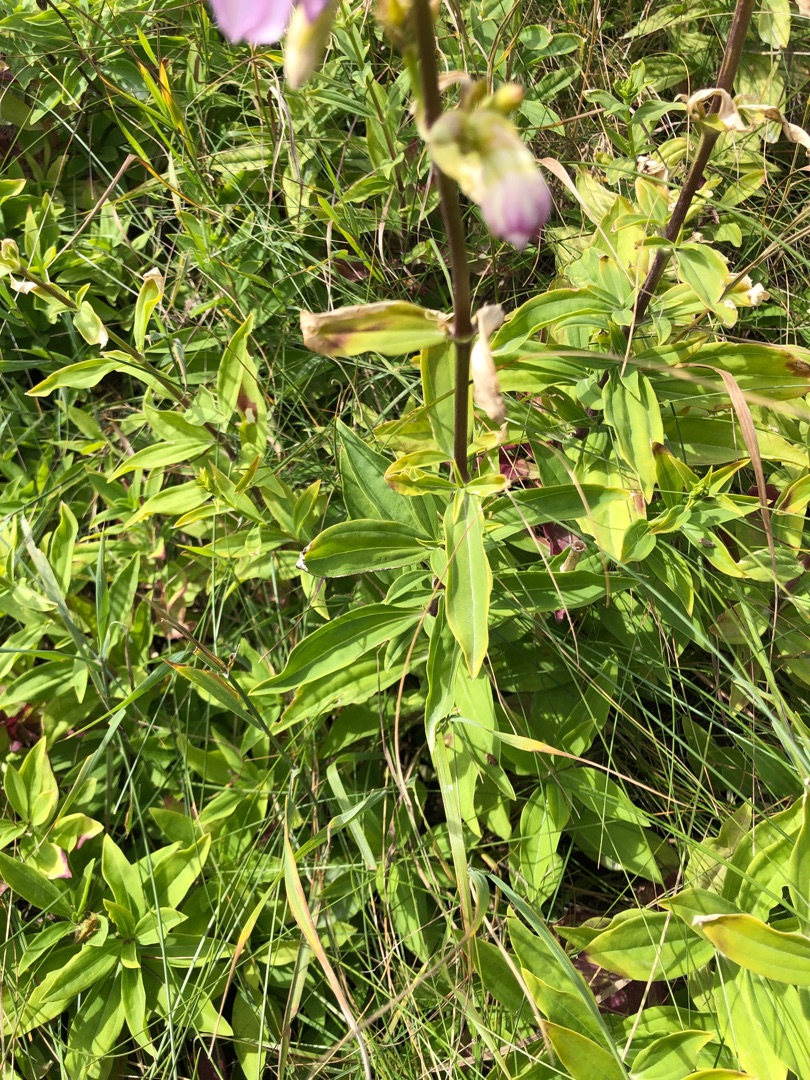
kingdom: Plantae
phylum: Tracheophyta
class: Magnoliopsida
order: Caryophyllales
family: Caryophyllaceae
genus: Saponaria
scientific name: Saponaria officinalis
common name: Sæbeurt
